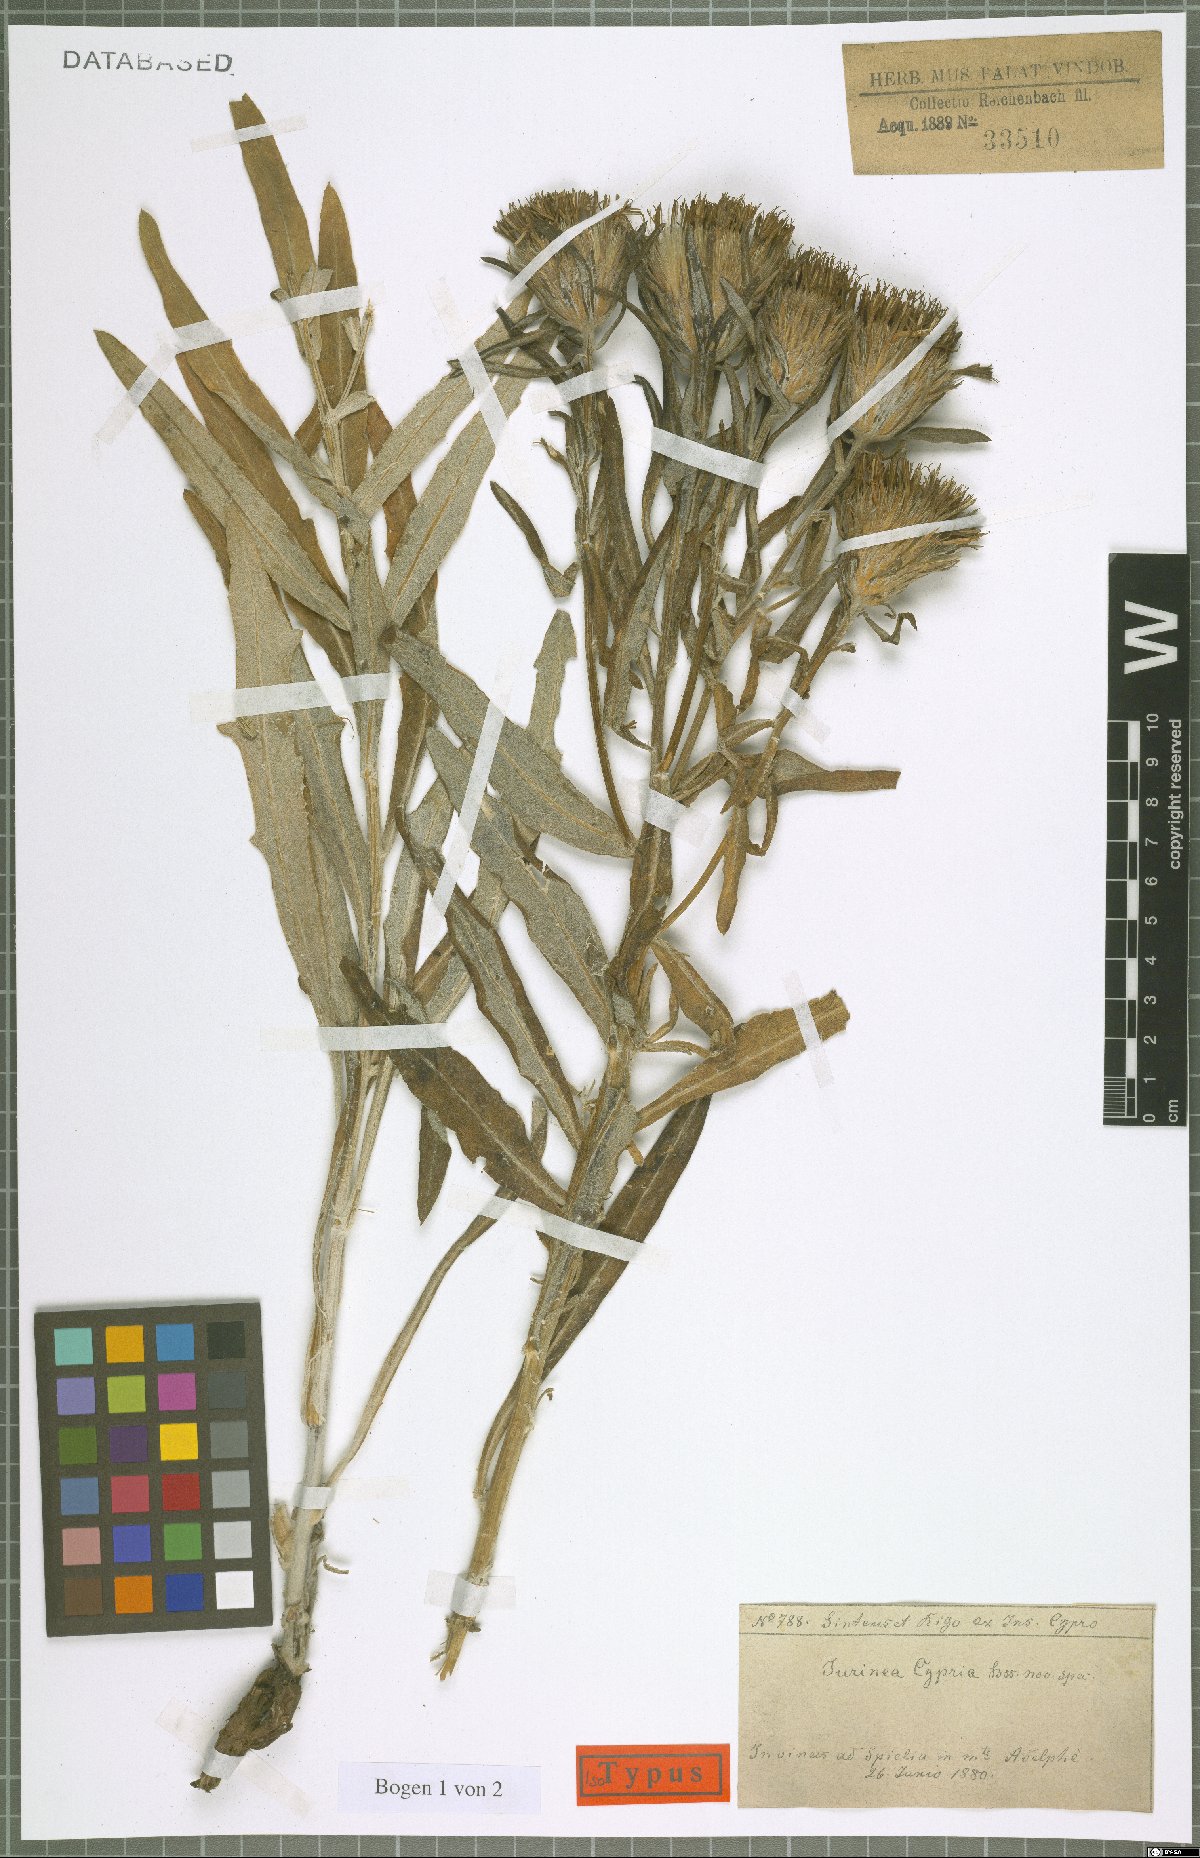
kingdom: Plantae
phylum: Tracheophyta
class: Magnoliopsida
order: Asterales
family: Asteraceae
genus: Jurinea
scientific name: Jurinea cypria
